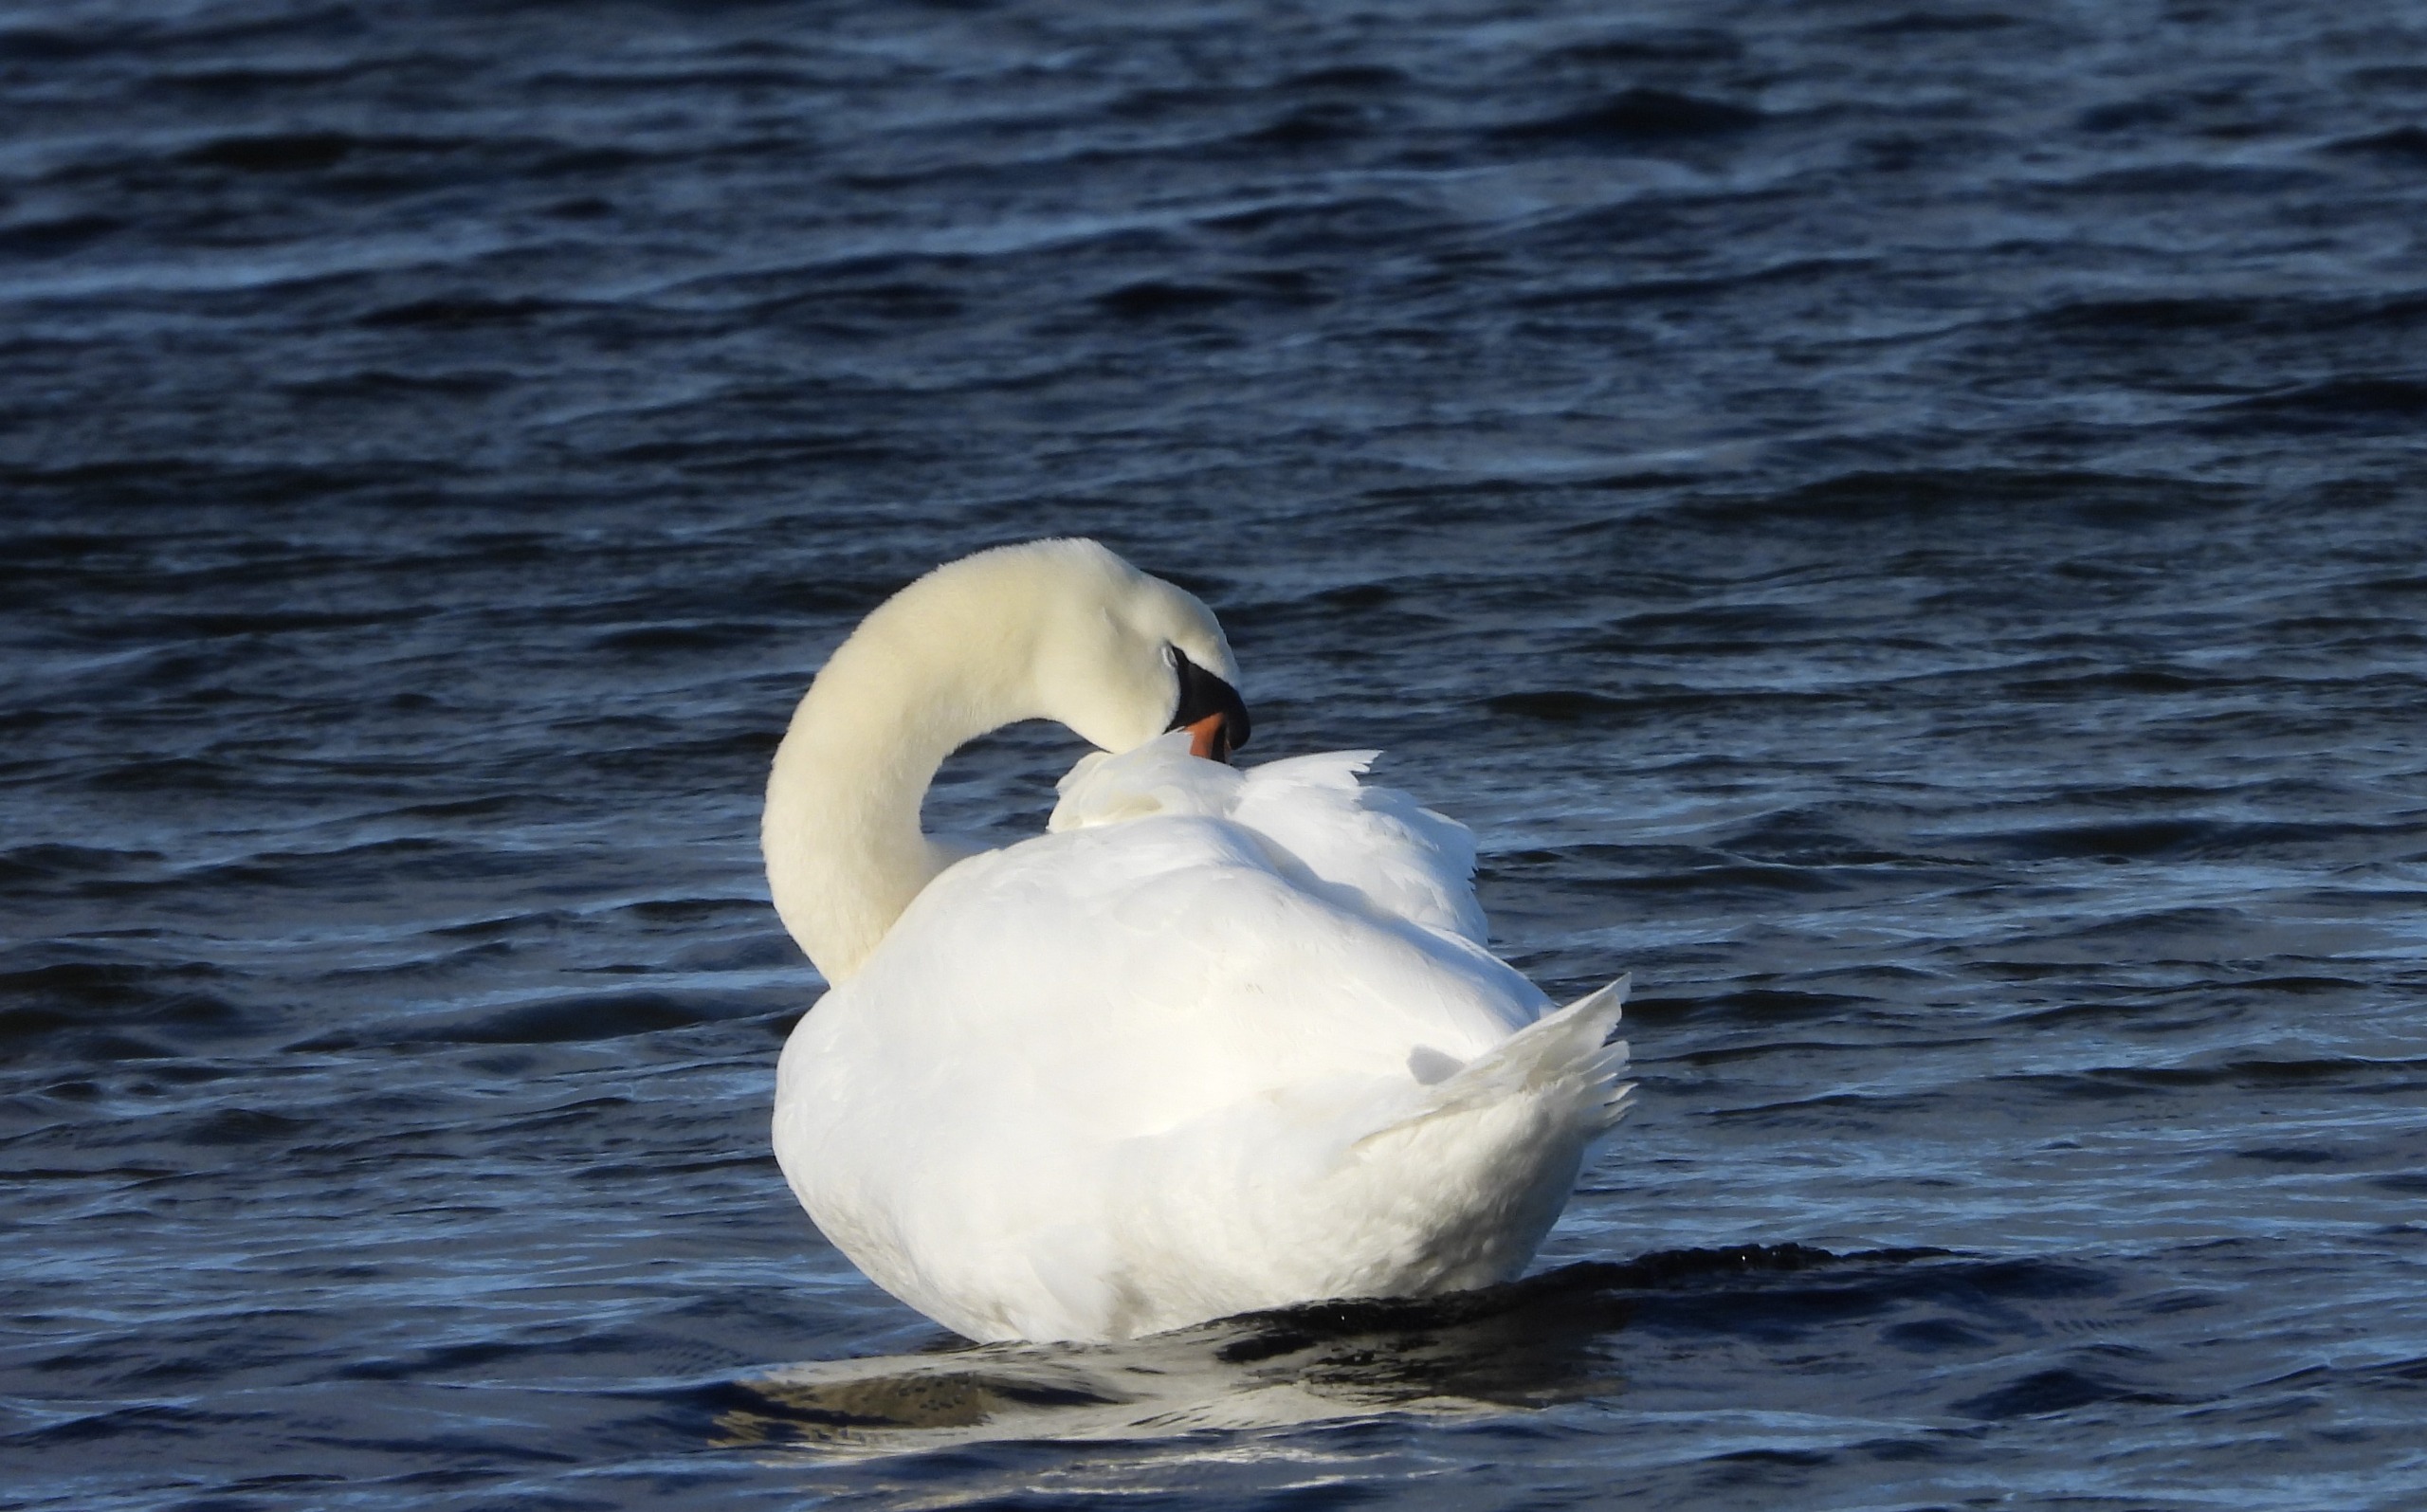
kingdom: Animalia
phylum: Chordata
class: Aves
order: Anseriformes
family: Anatidae
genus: Cygnus
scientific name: Cygnus olor
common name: Knopsvane
